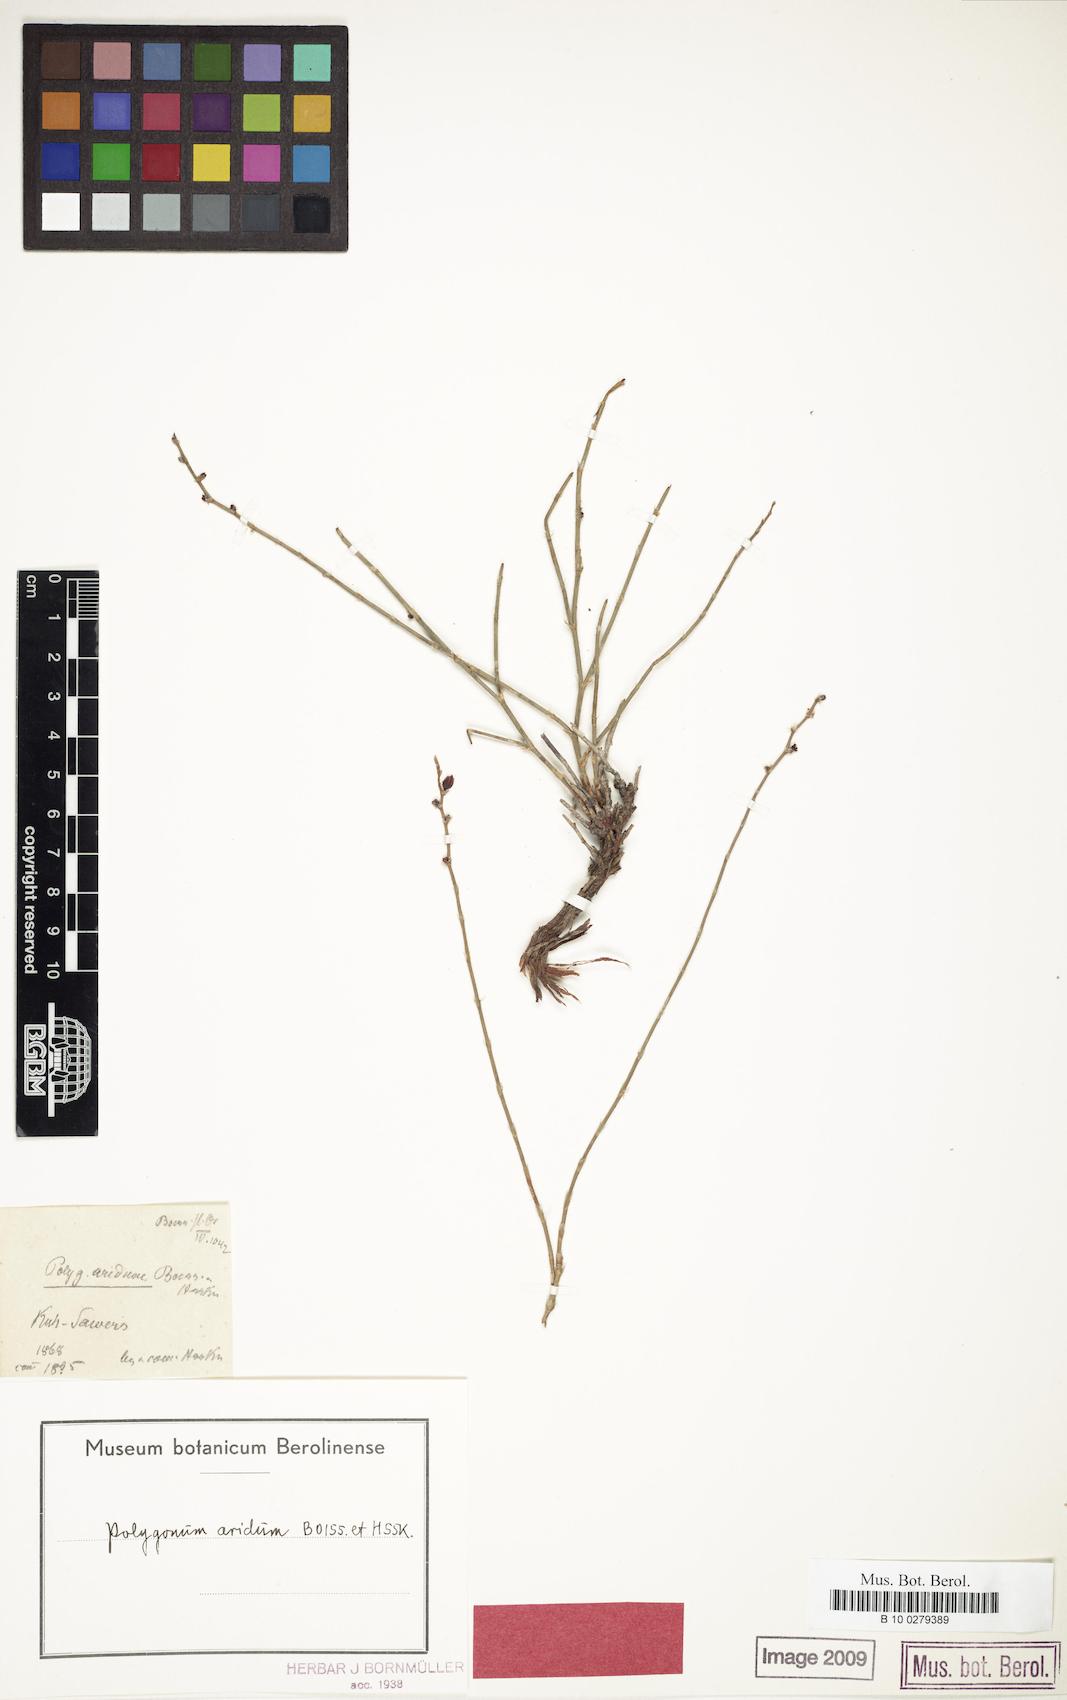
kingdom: Plantae
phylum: Tracheophyta
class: Magnoliopsida
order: Caryophyllales
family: Polygonaceae
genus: Atraphaxis
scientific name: Atraphaxis arida
